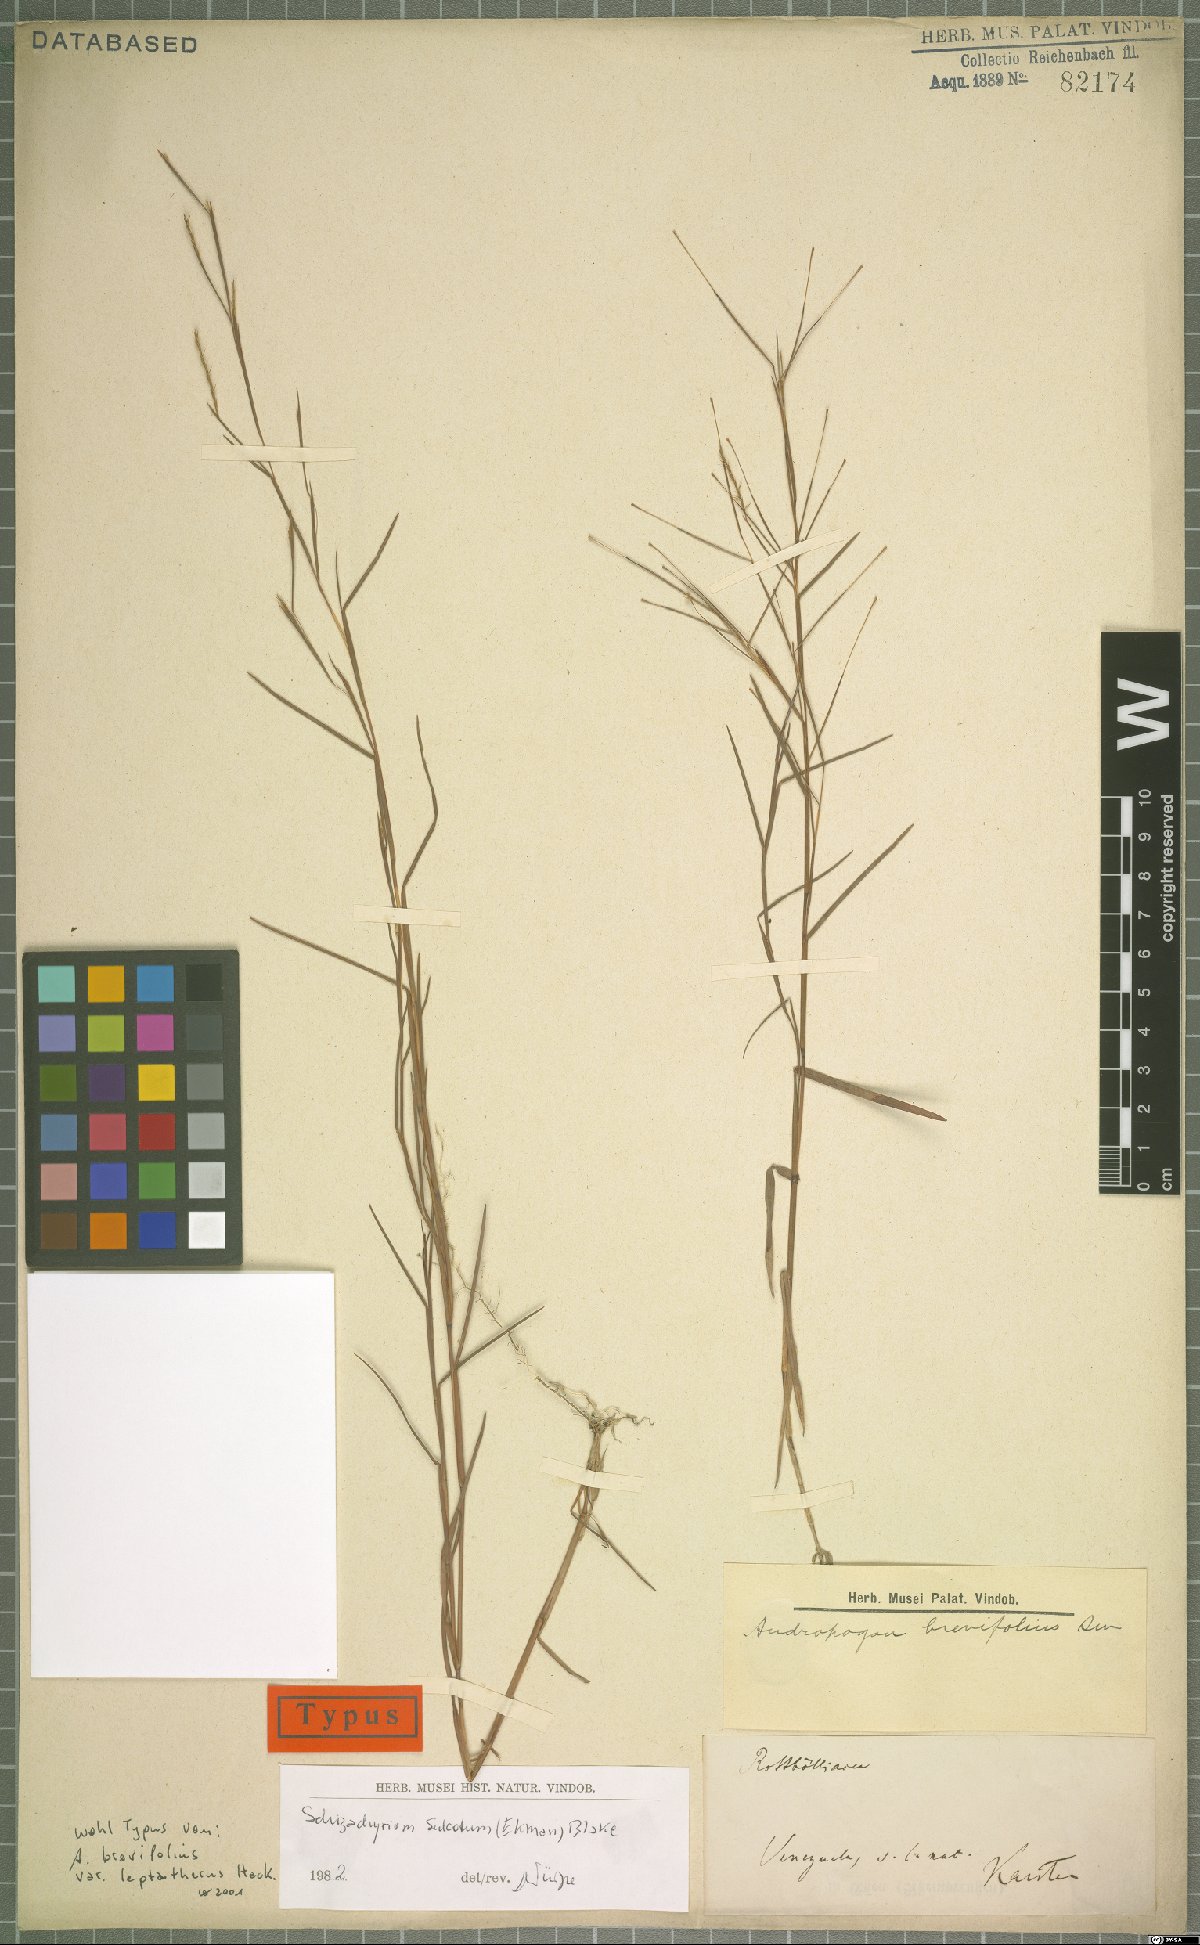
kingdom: Plantae
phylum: Tracheophyta
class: Liliopsida
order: Poales
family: Poaceae
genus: Schizachyrium
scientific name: Schizachyrium sulcatum
